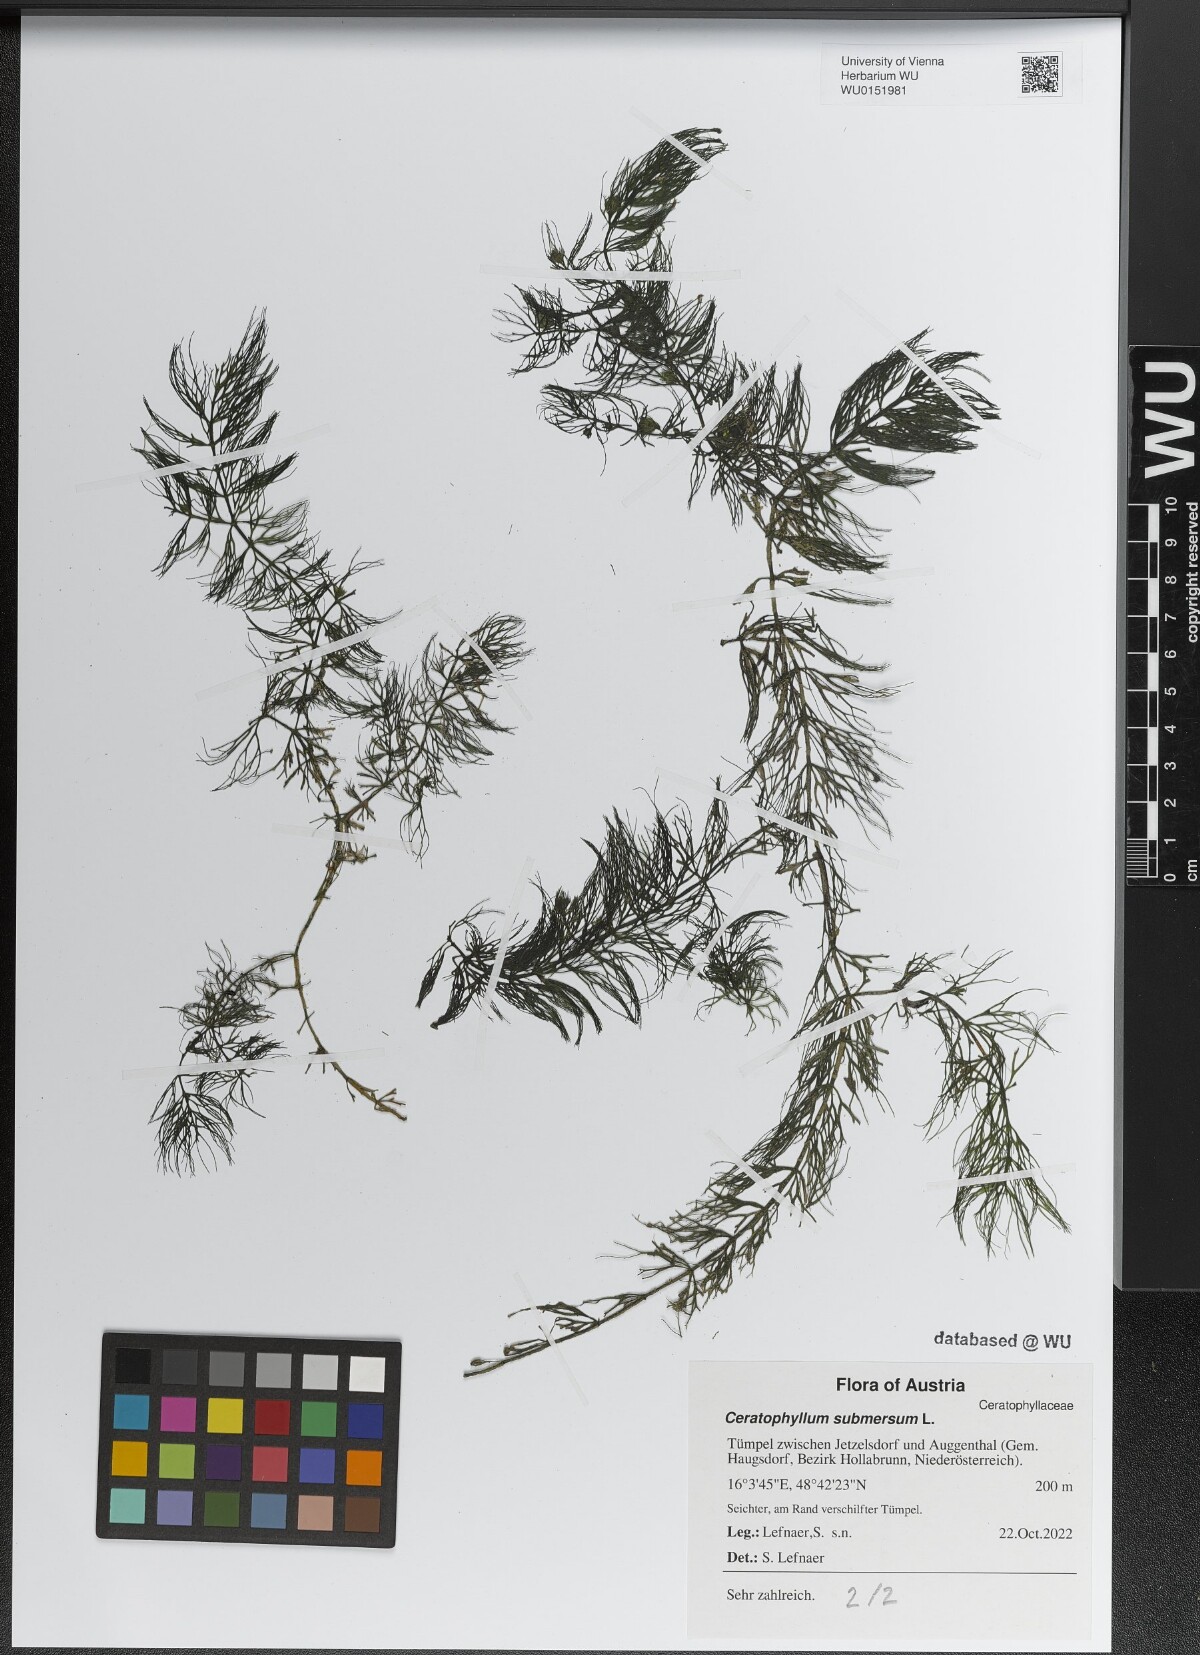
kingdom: Plantae
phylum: Tracheophyta
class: Magnoliopsida
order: Ceratophyllales
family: Ceratophyllaceae
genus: Ceratophyllum
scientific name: Ceratophyllum submersum
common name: Soft hornwort
